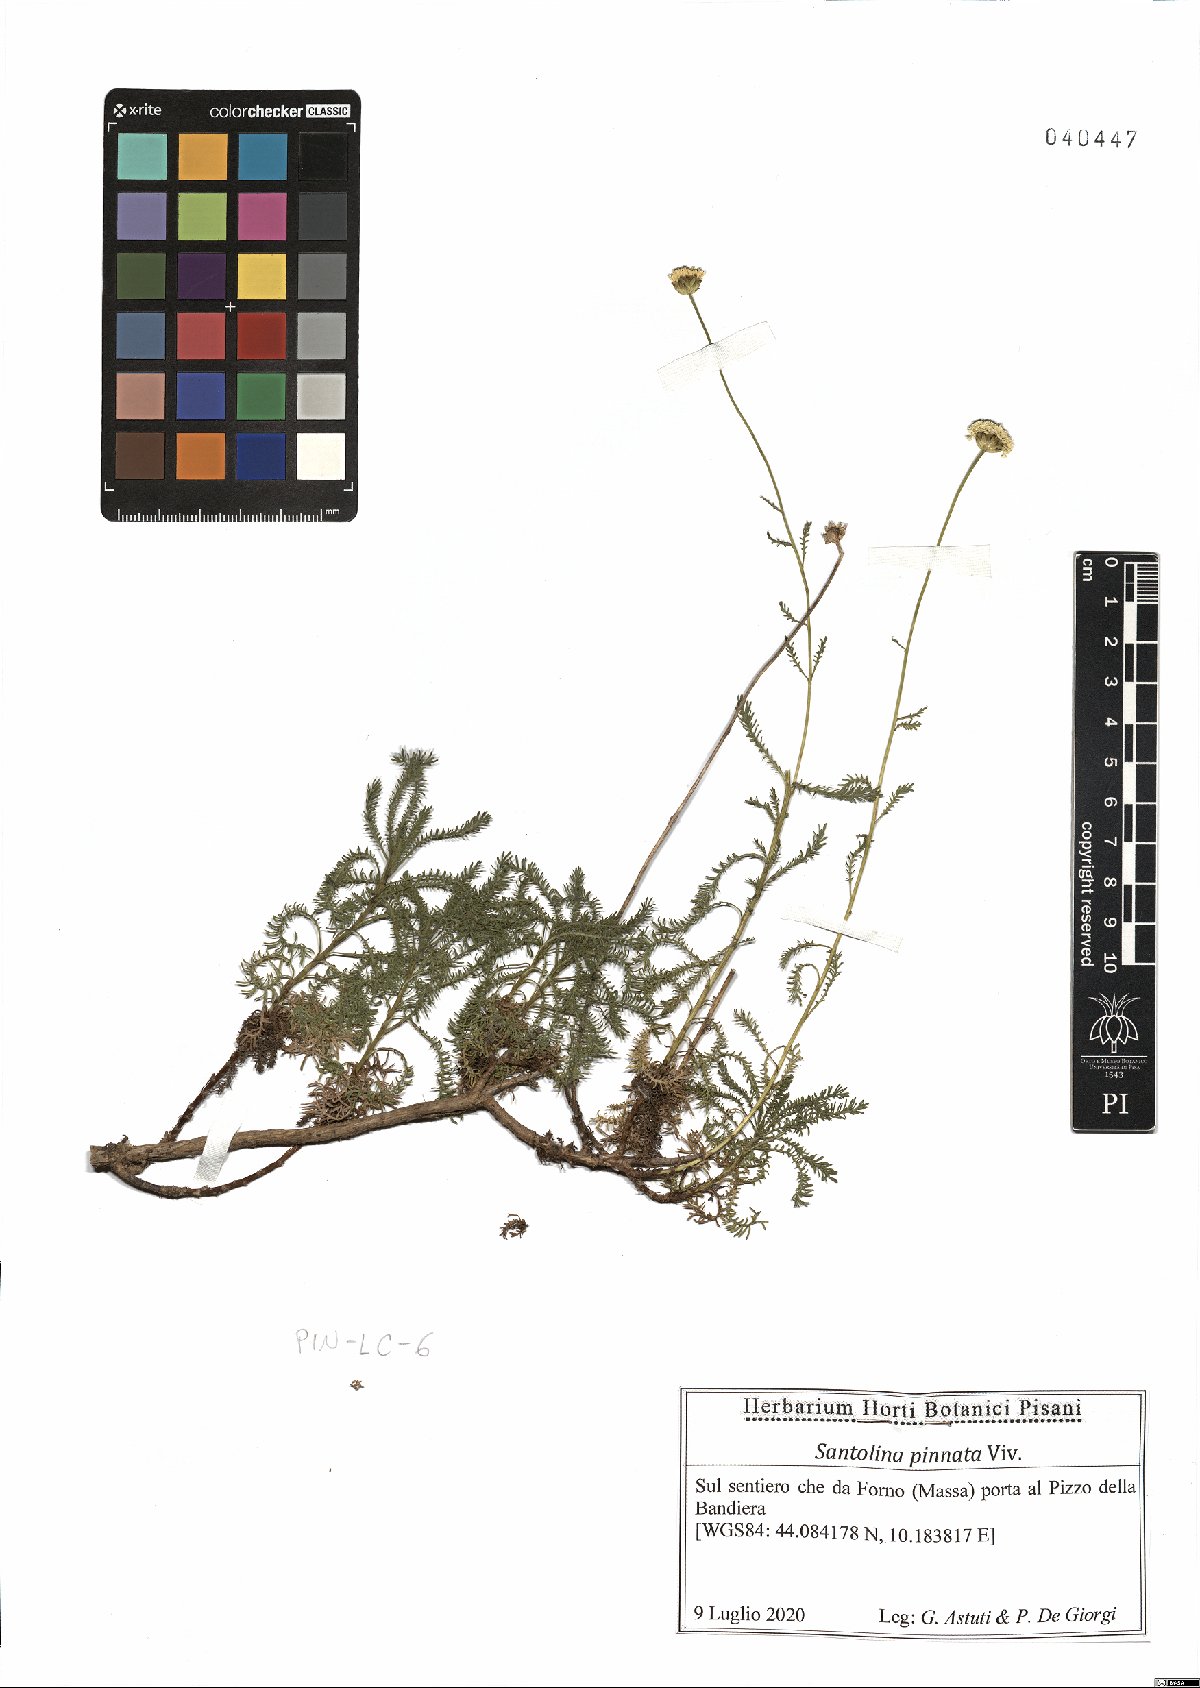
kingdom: Plantae
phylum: Tracheophyta
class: Magnoliopsida
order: Asterales
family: Asteraceae
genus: Santolina
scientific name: Santolina pinnata
